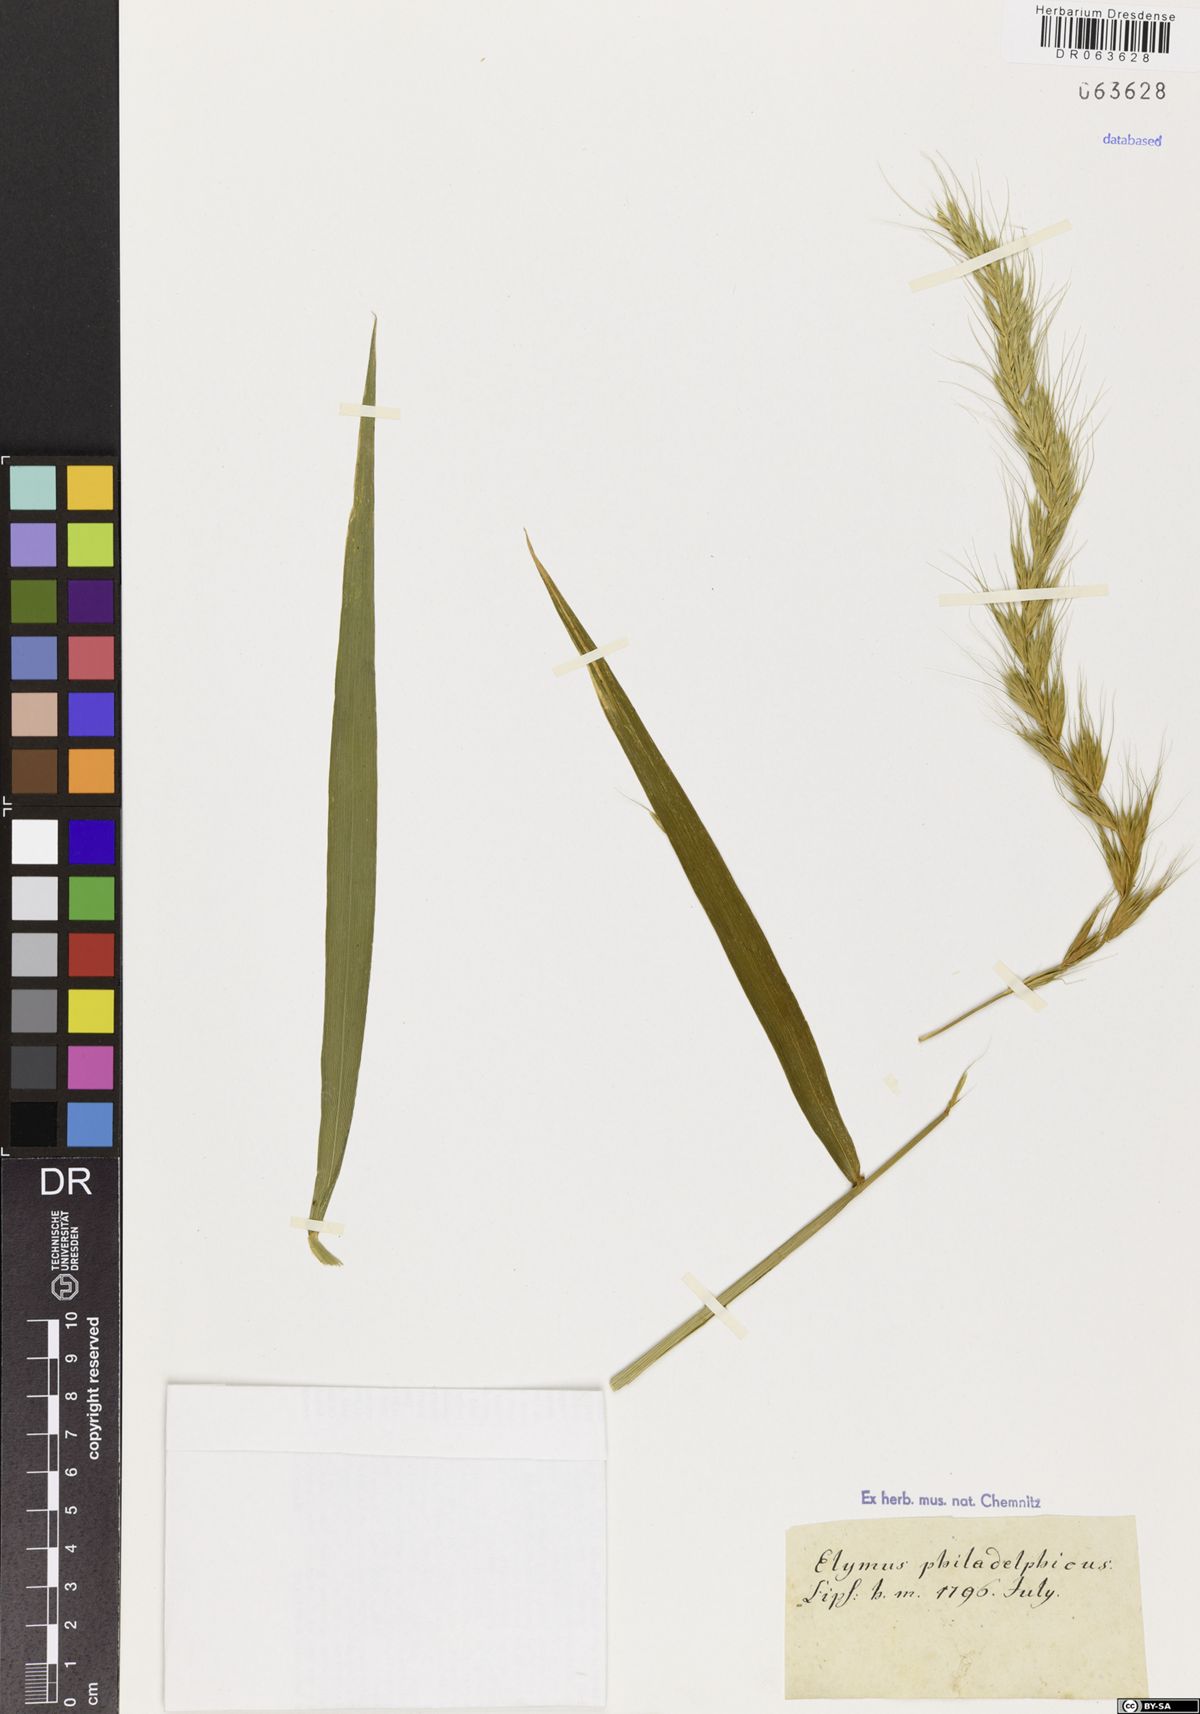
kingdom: Plantae
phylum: Tracheophyta
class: Liliopsida
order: Poales
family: Poaceae
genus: Elymus
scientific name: Elymus canadensis
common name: Canada wild rye
